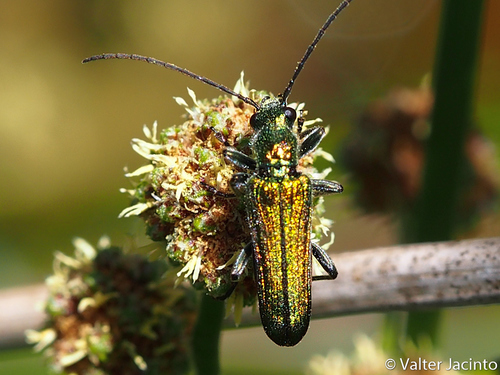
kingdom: Animalia
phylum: Arthropoda
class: Insecta
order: Coleoptera
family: Oedemeridae
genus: Anogcodes
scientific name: Anogcodes seladonius
